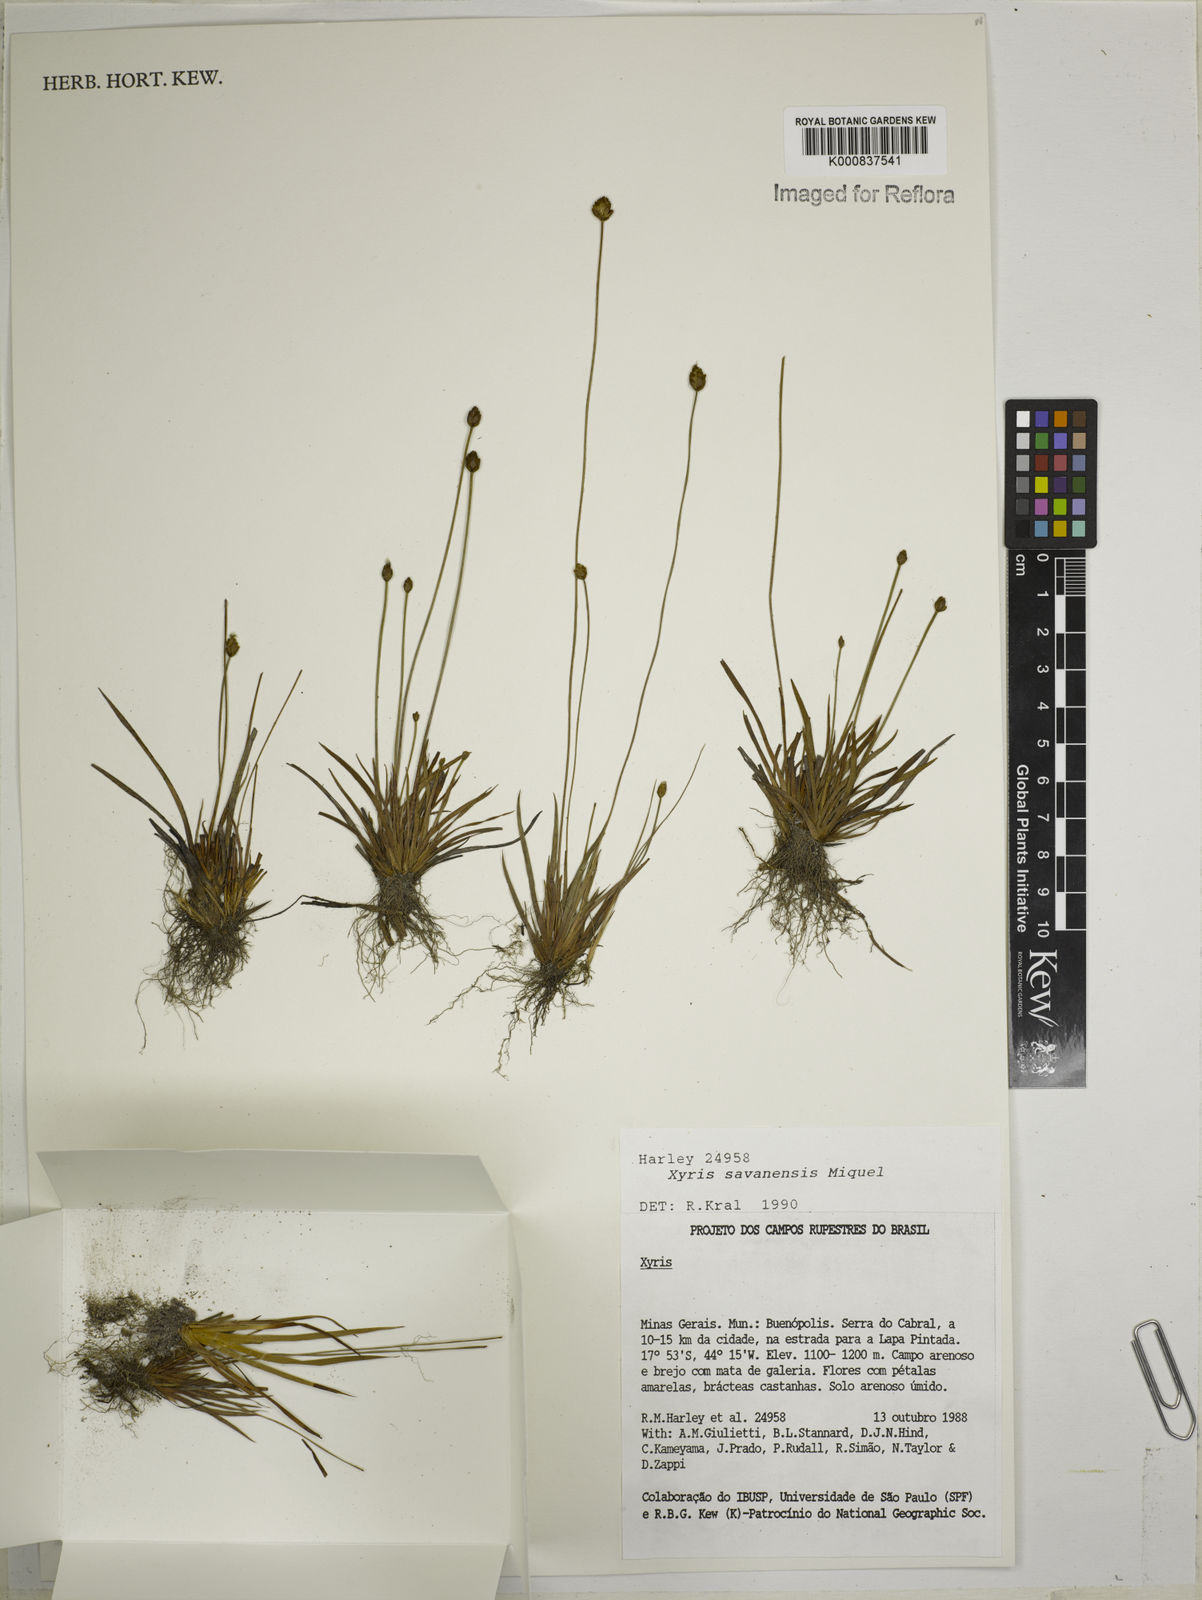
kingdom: Plantae
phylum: Tracheophyta
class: Liliopsida
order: Poales
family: Xyridaceae
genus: Xyris
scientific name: Xyris savanensis
